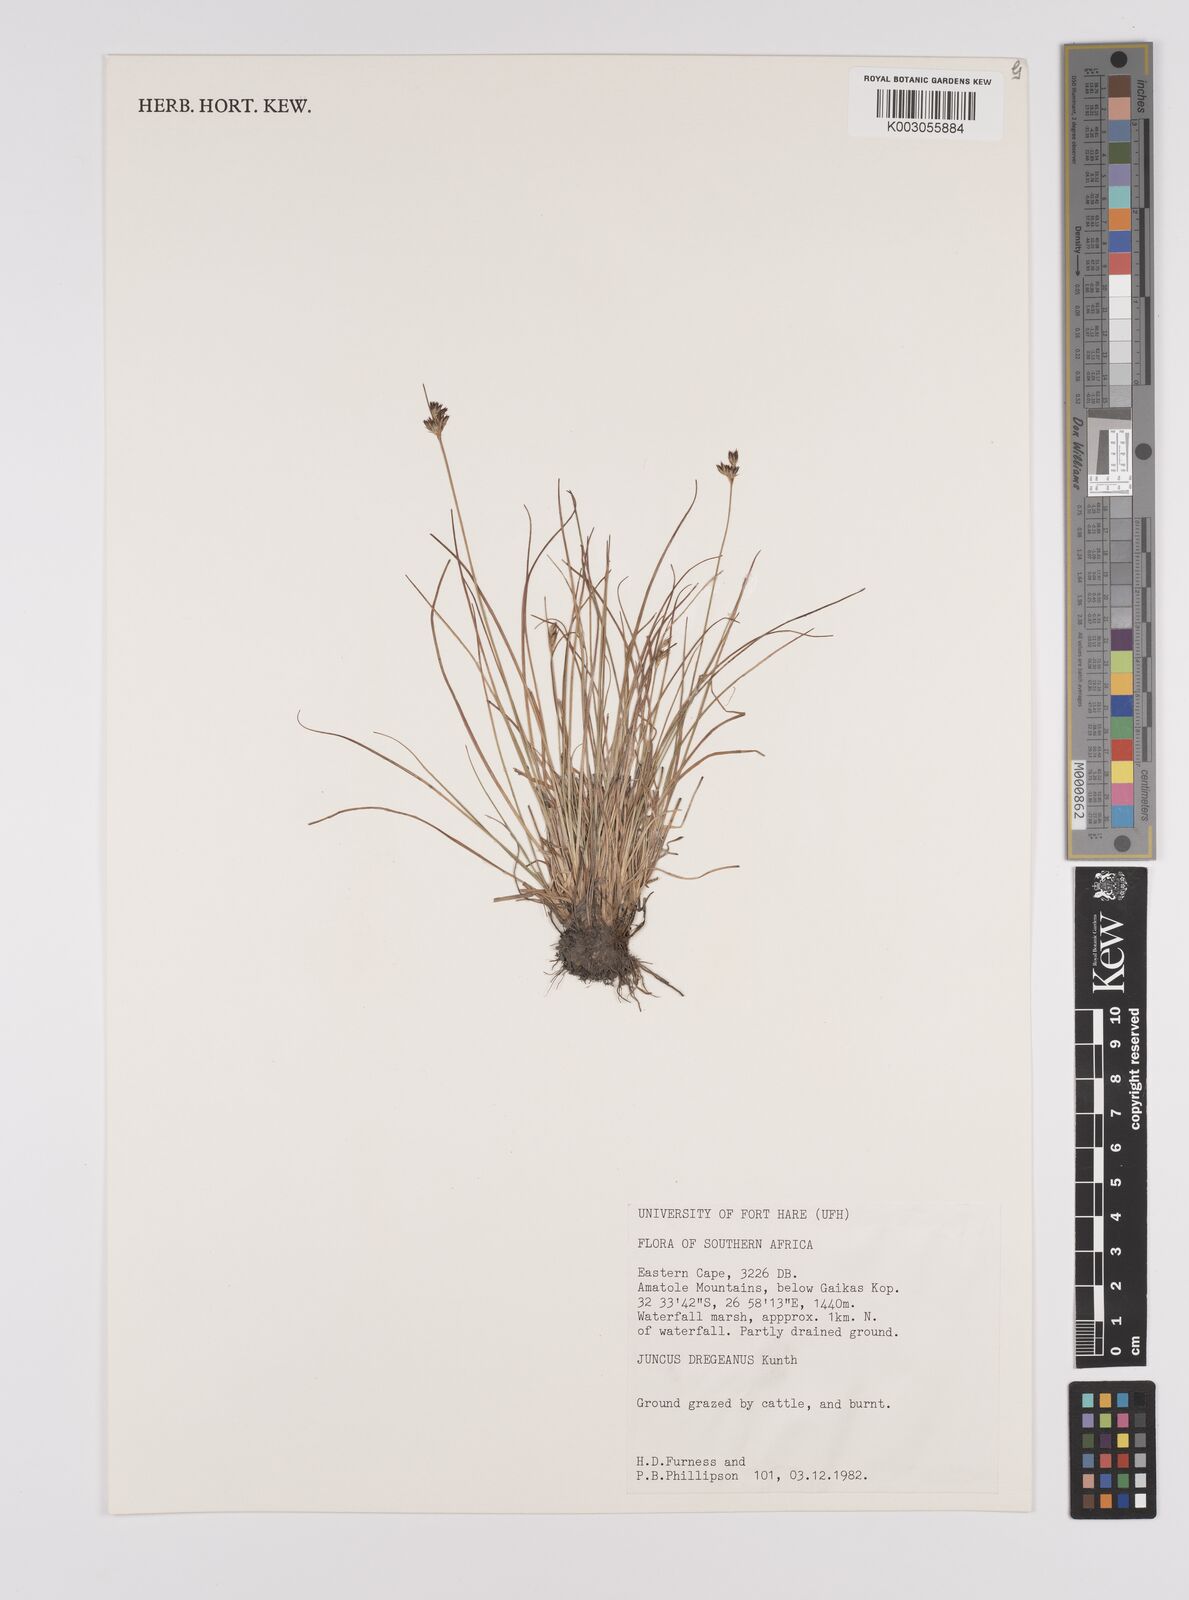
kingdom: Plantae
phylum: Tracheophyta
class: Liliopsida
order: Poales
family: Juncaceae
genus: Juncus
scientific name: Juncus dregeanus
